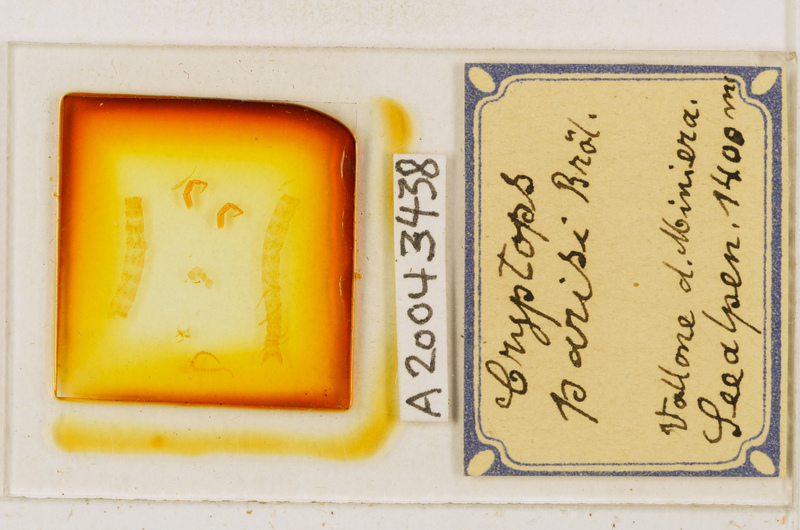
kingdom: Animalia
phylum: Arthropoda
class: Chilopoda
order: Scolopendromorpha
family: Cryptopidae
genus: Cryptops
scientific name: Cryptops parisi
